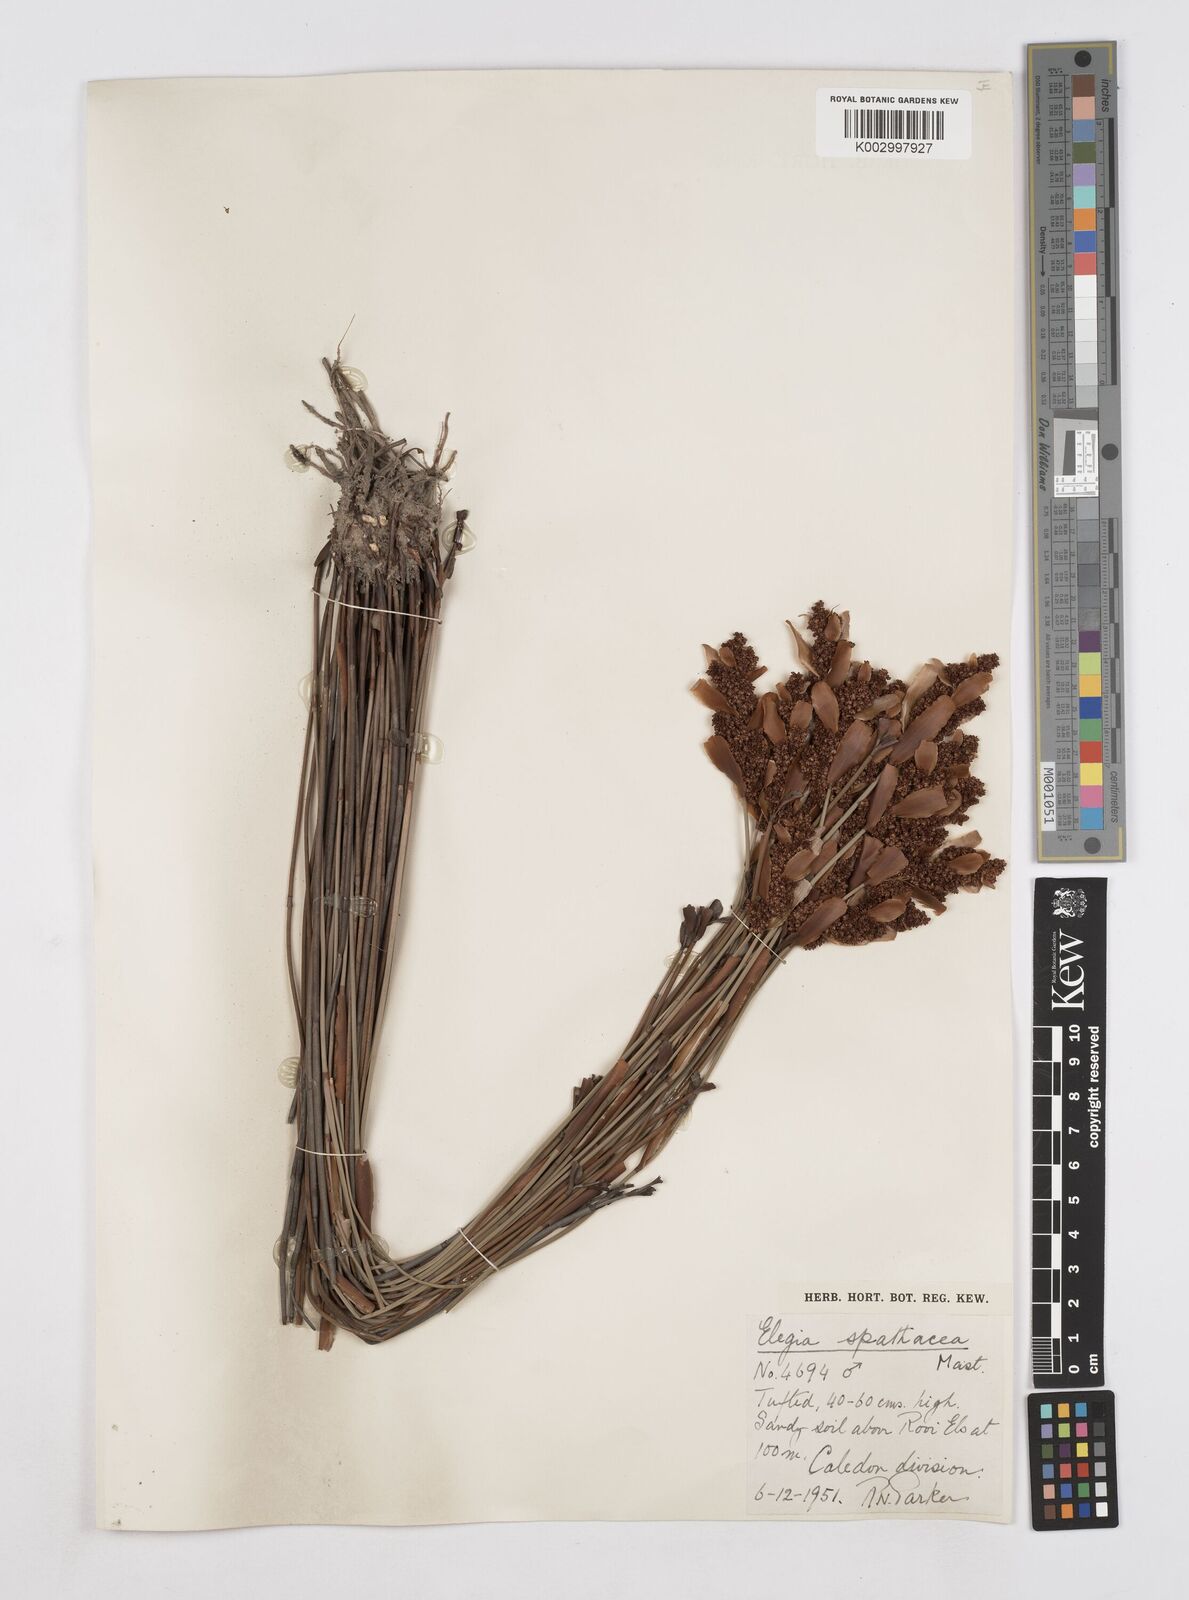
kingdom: Plantae
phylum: Tracheophyta
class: Liliopsida
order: Poales
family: Restionaceae
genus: Elegia
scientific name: Elegia spathacea
